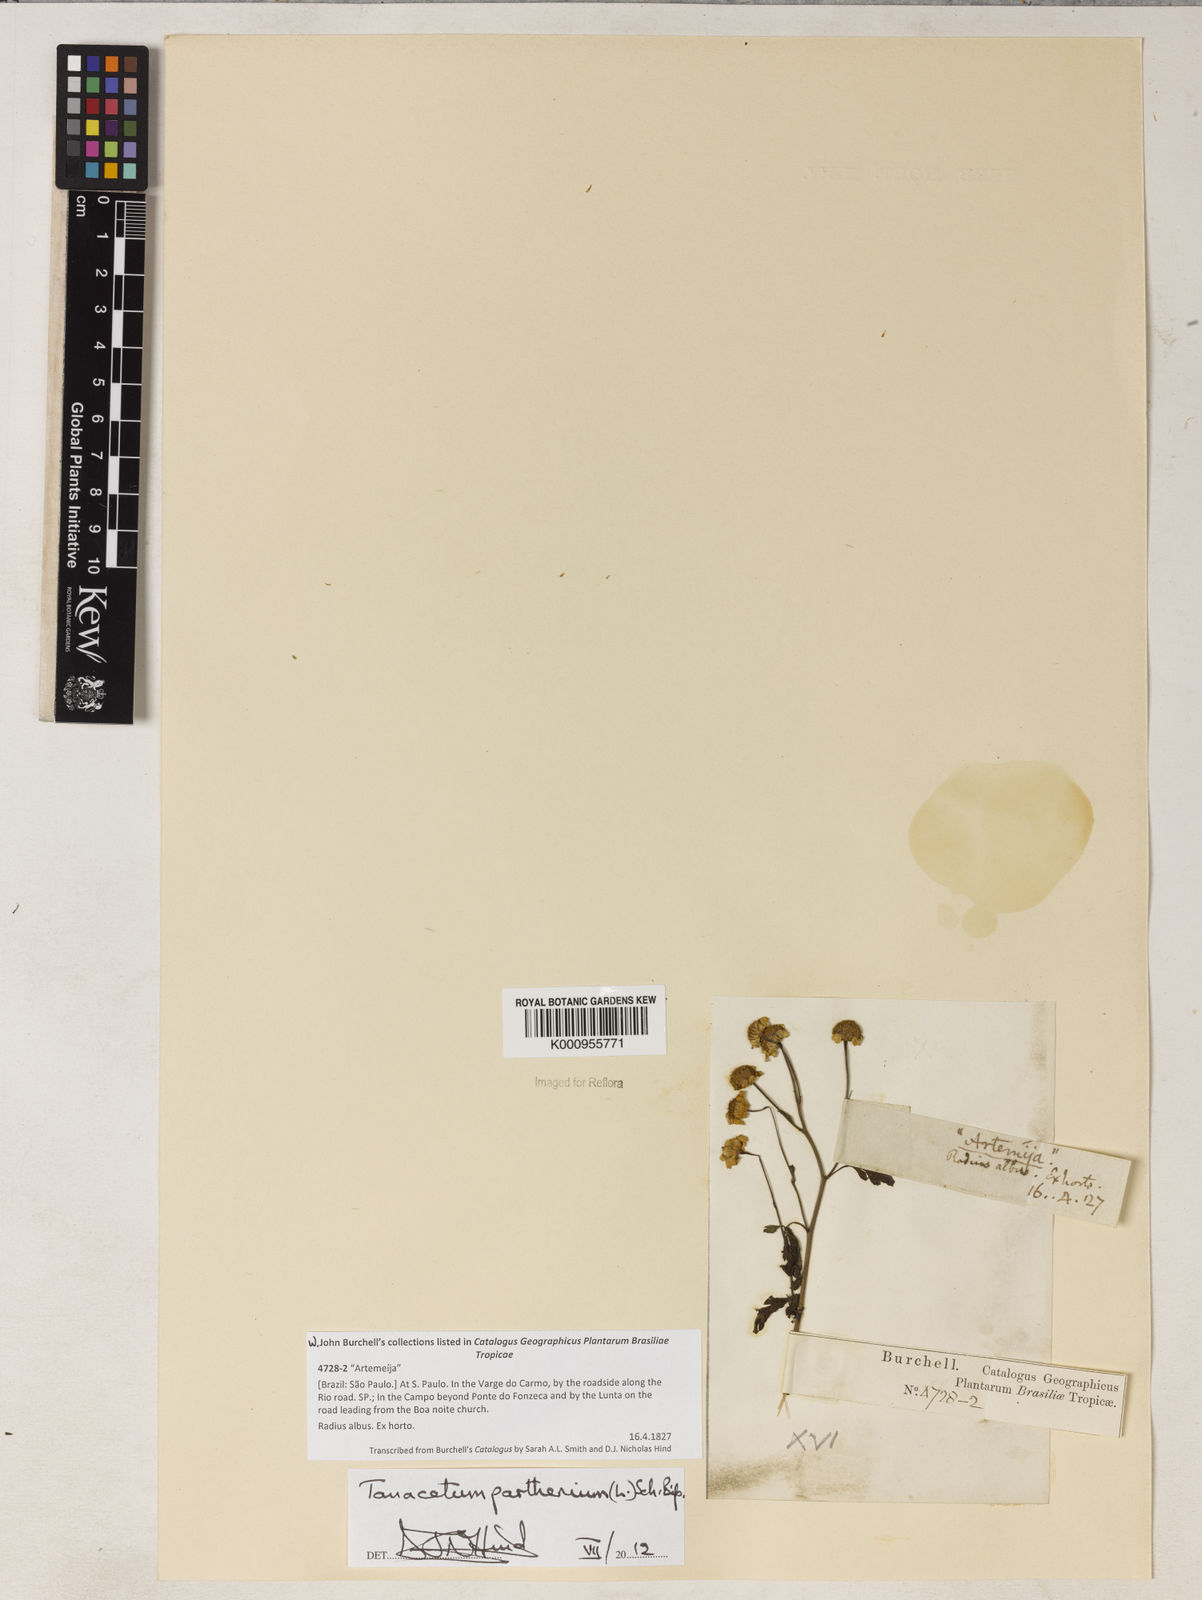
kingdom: Plantae
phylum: Tracheophyta
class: Magnoliopsida
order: Asterales
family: Asteraceae
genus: Tanacetum
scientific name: Tanacetum parthenium
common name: Feverfew
